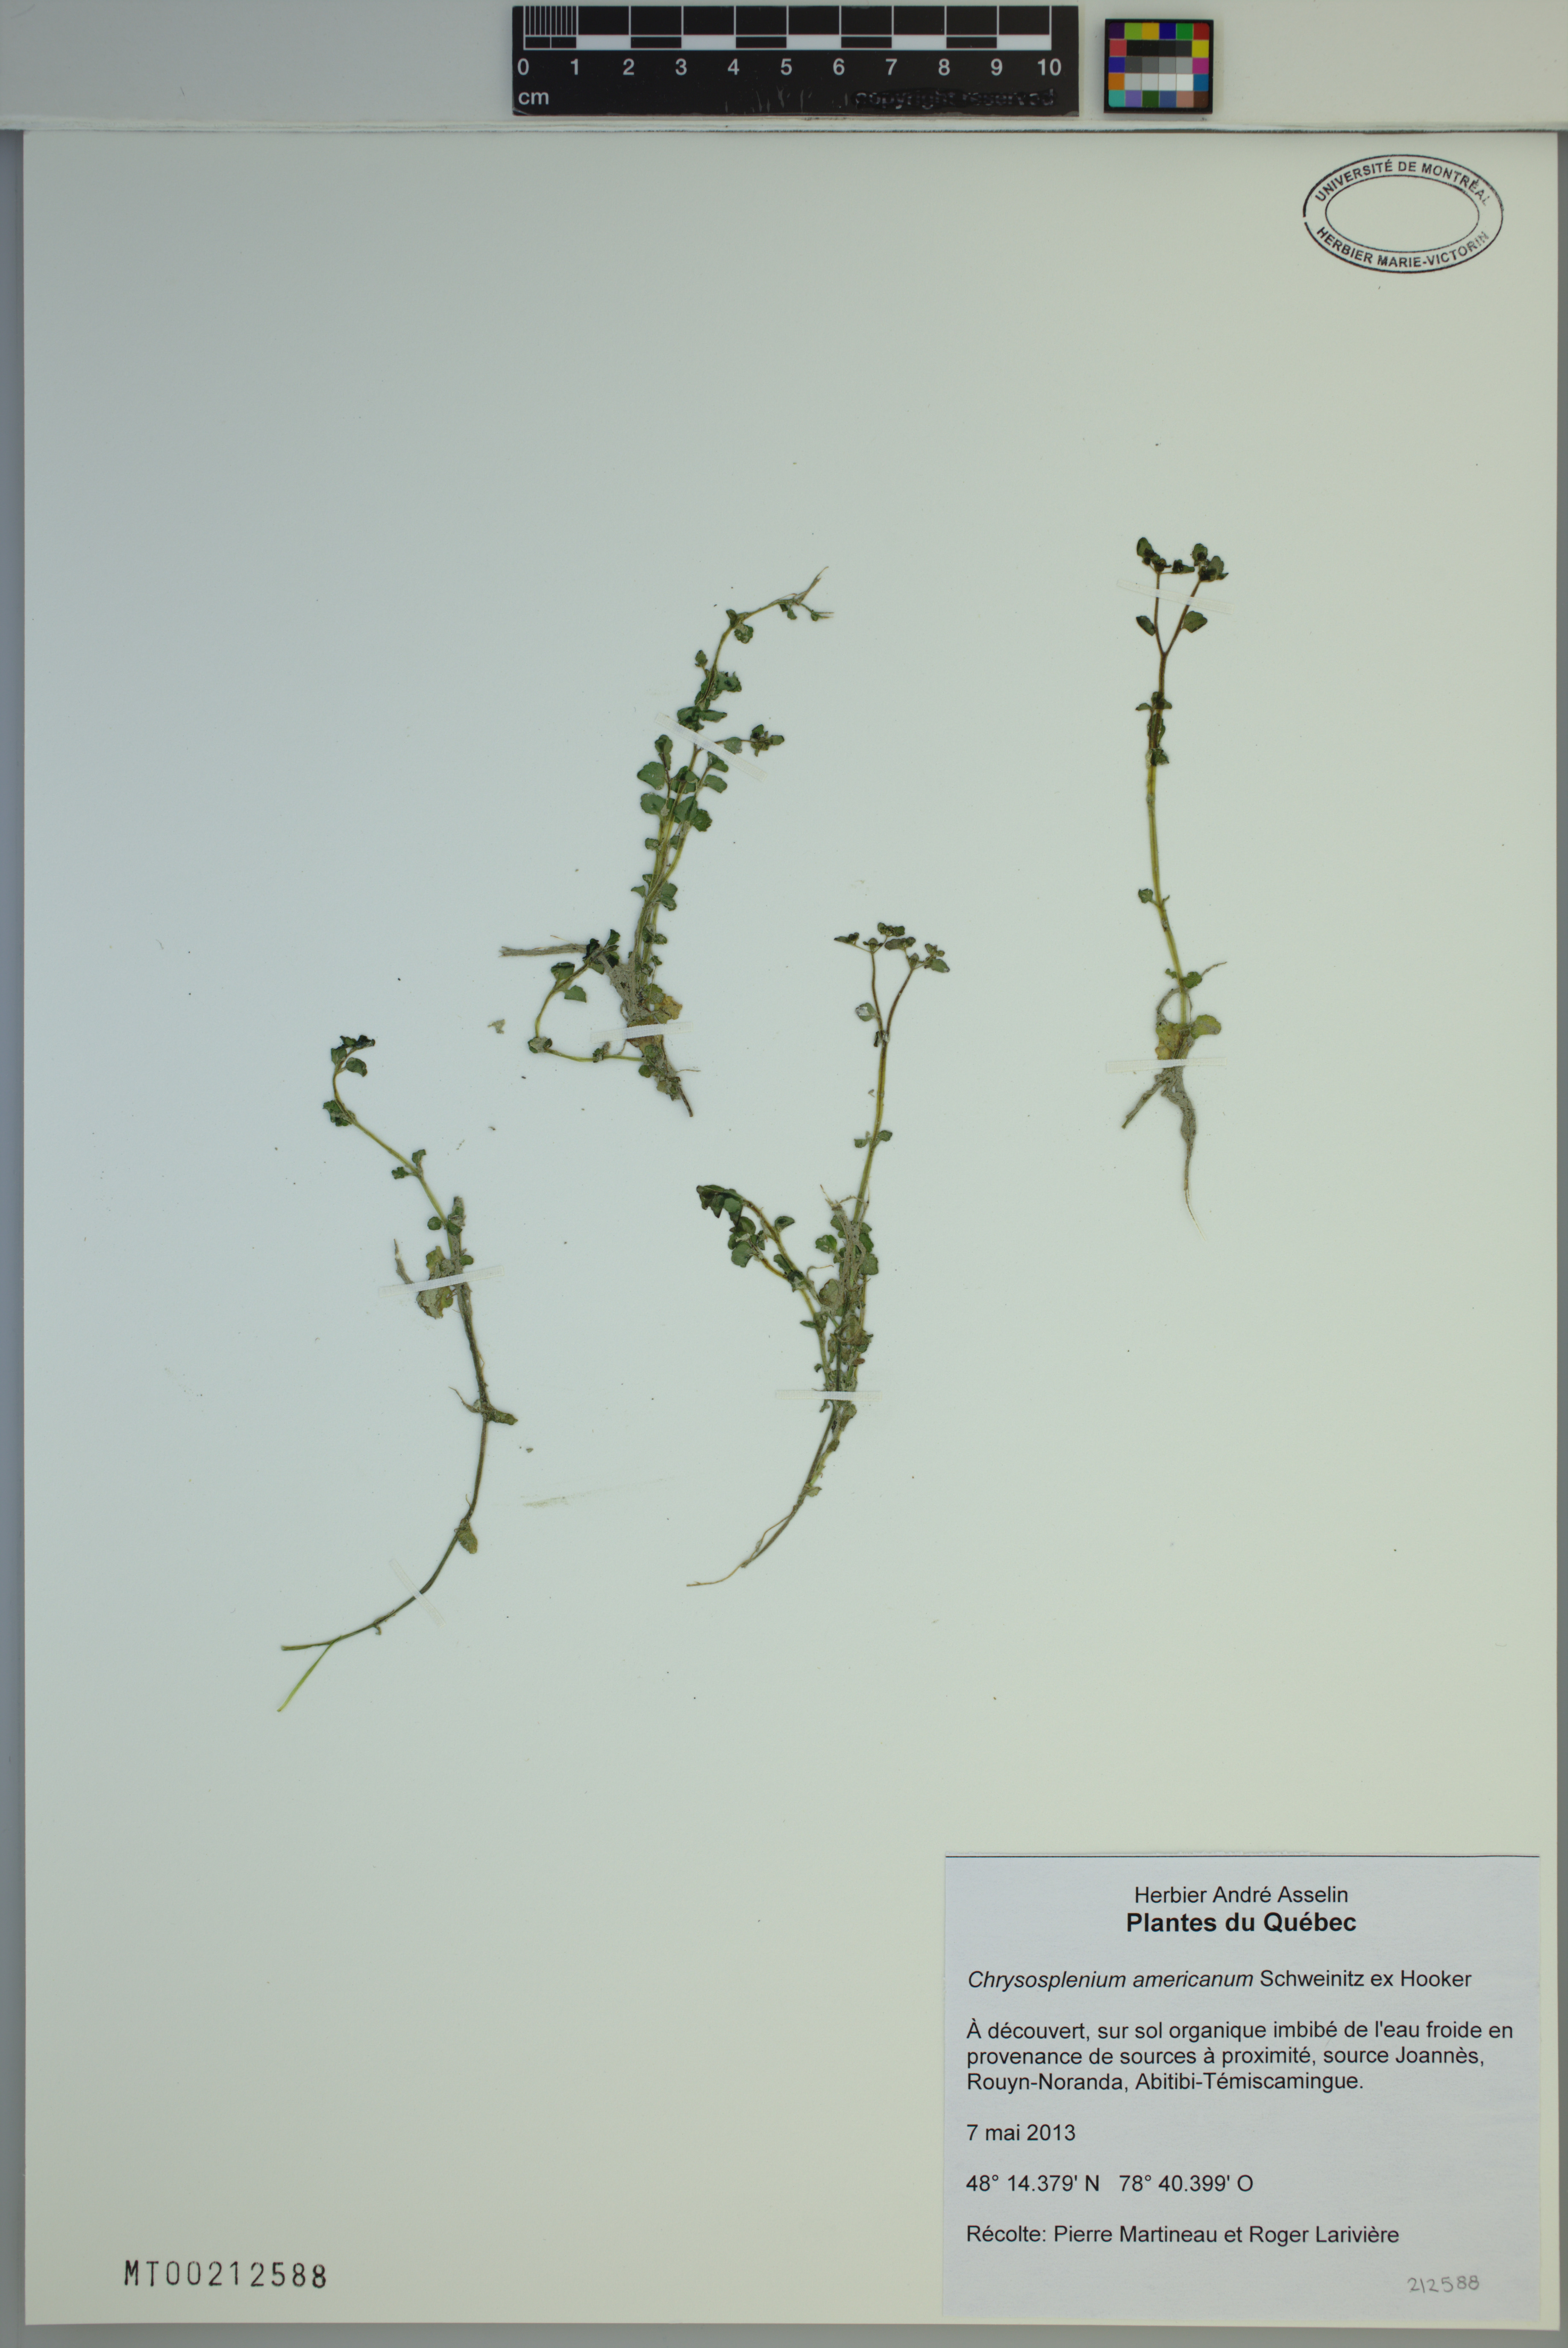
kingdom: Plantae
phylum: Tracheophyta
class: Magnoliopsida
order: Saxifragales
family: Saxifragaceae
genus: Chrysosplenium
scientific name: Chrysosplenium americanum
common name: American golden-saxifrage
